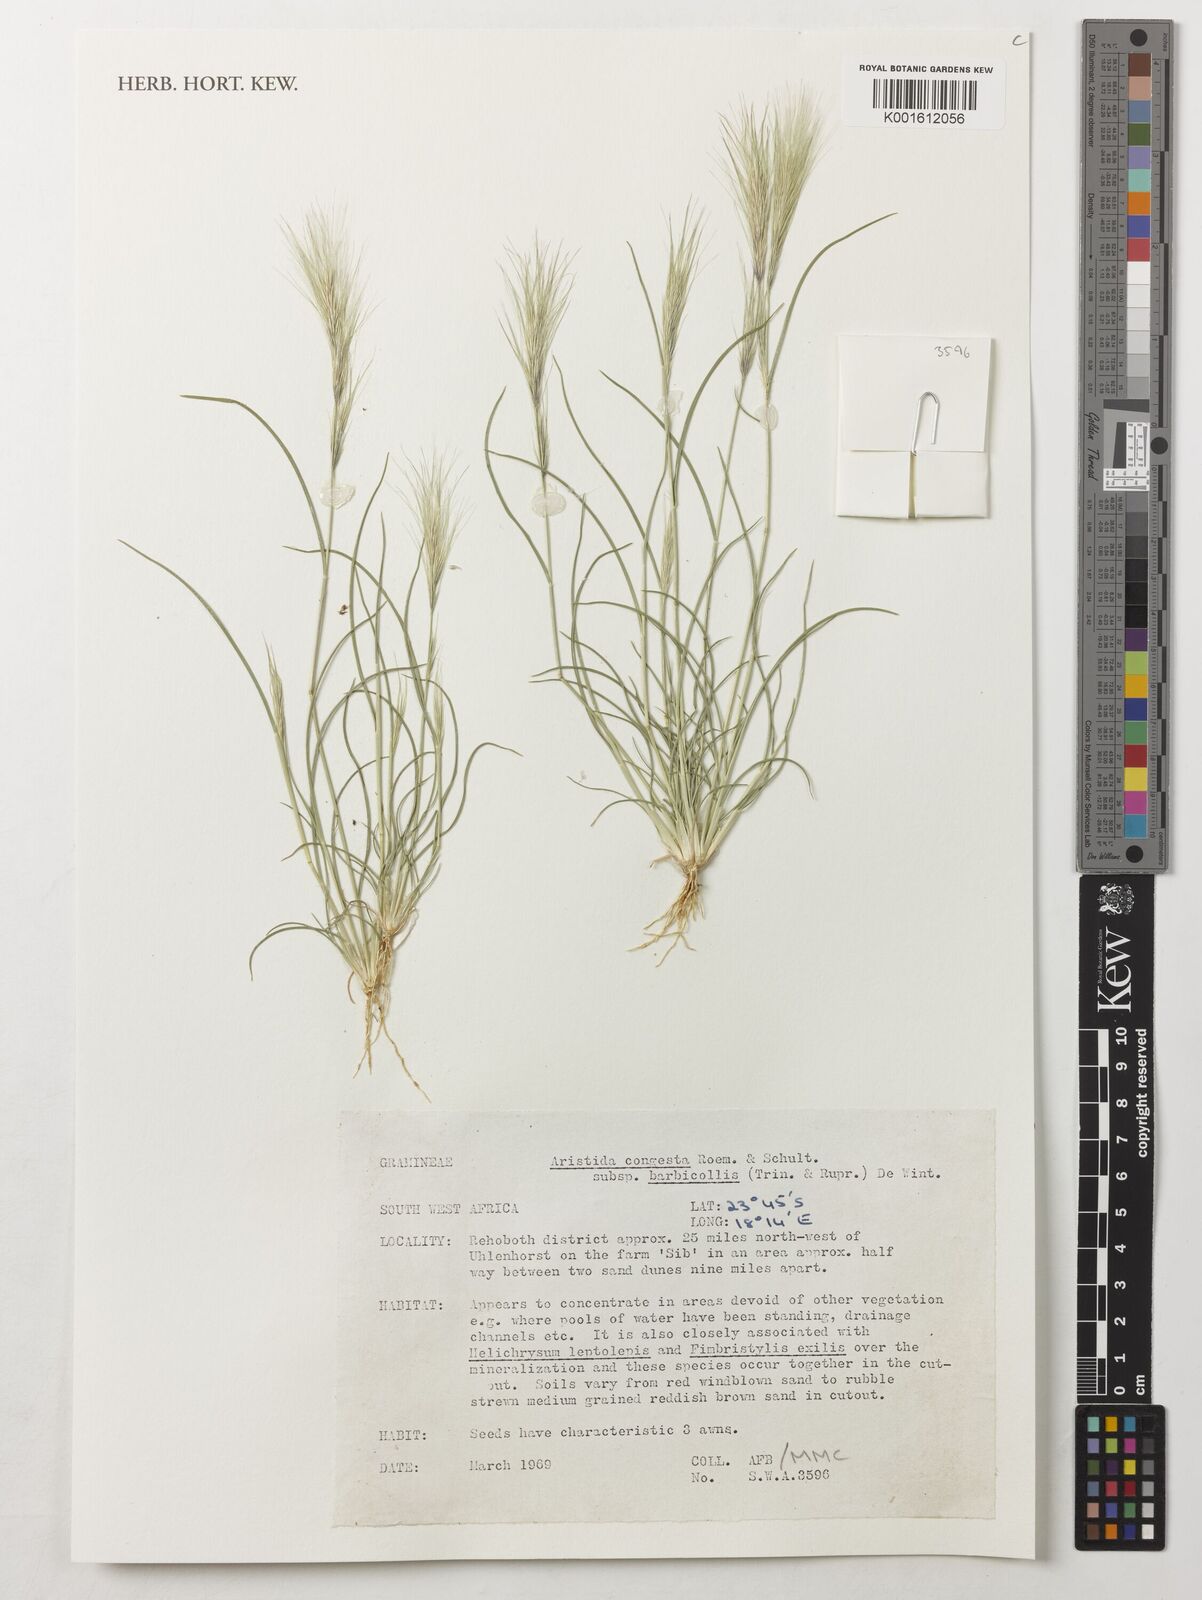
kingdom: Plantae
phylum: Tracheophyta
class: Liliopsida
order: Poales
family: Poaceae
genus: Aristida
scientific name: Aristida congesta
